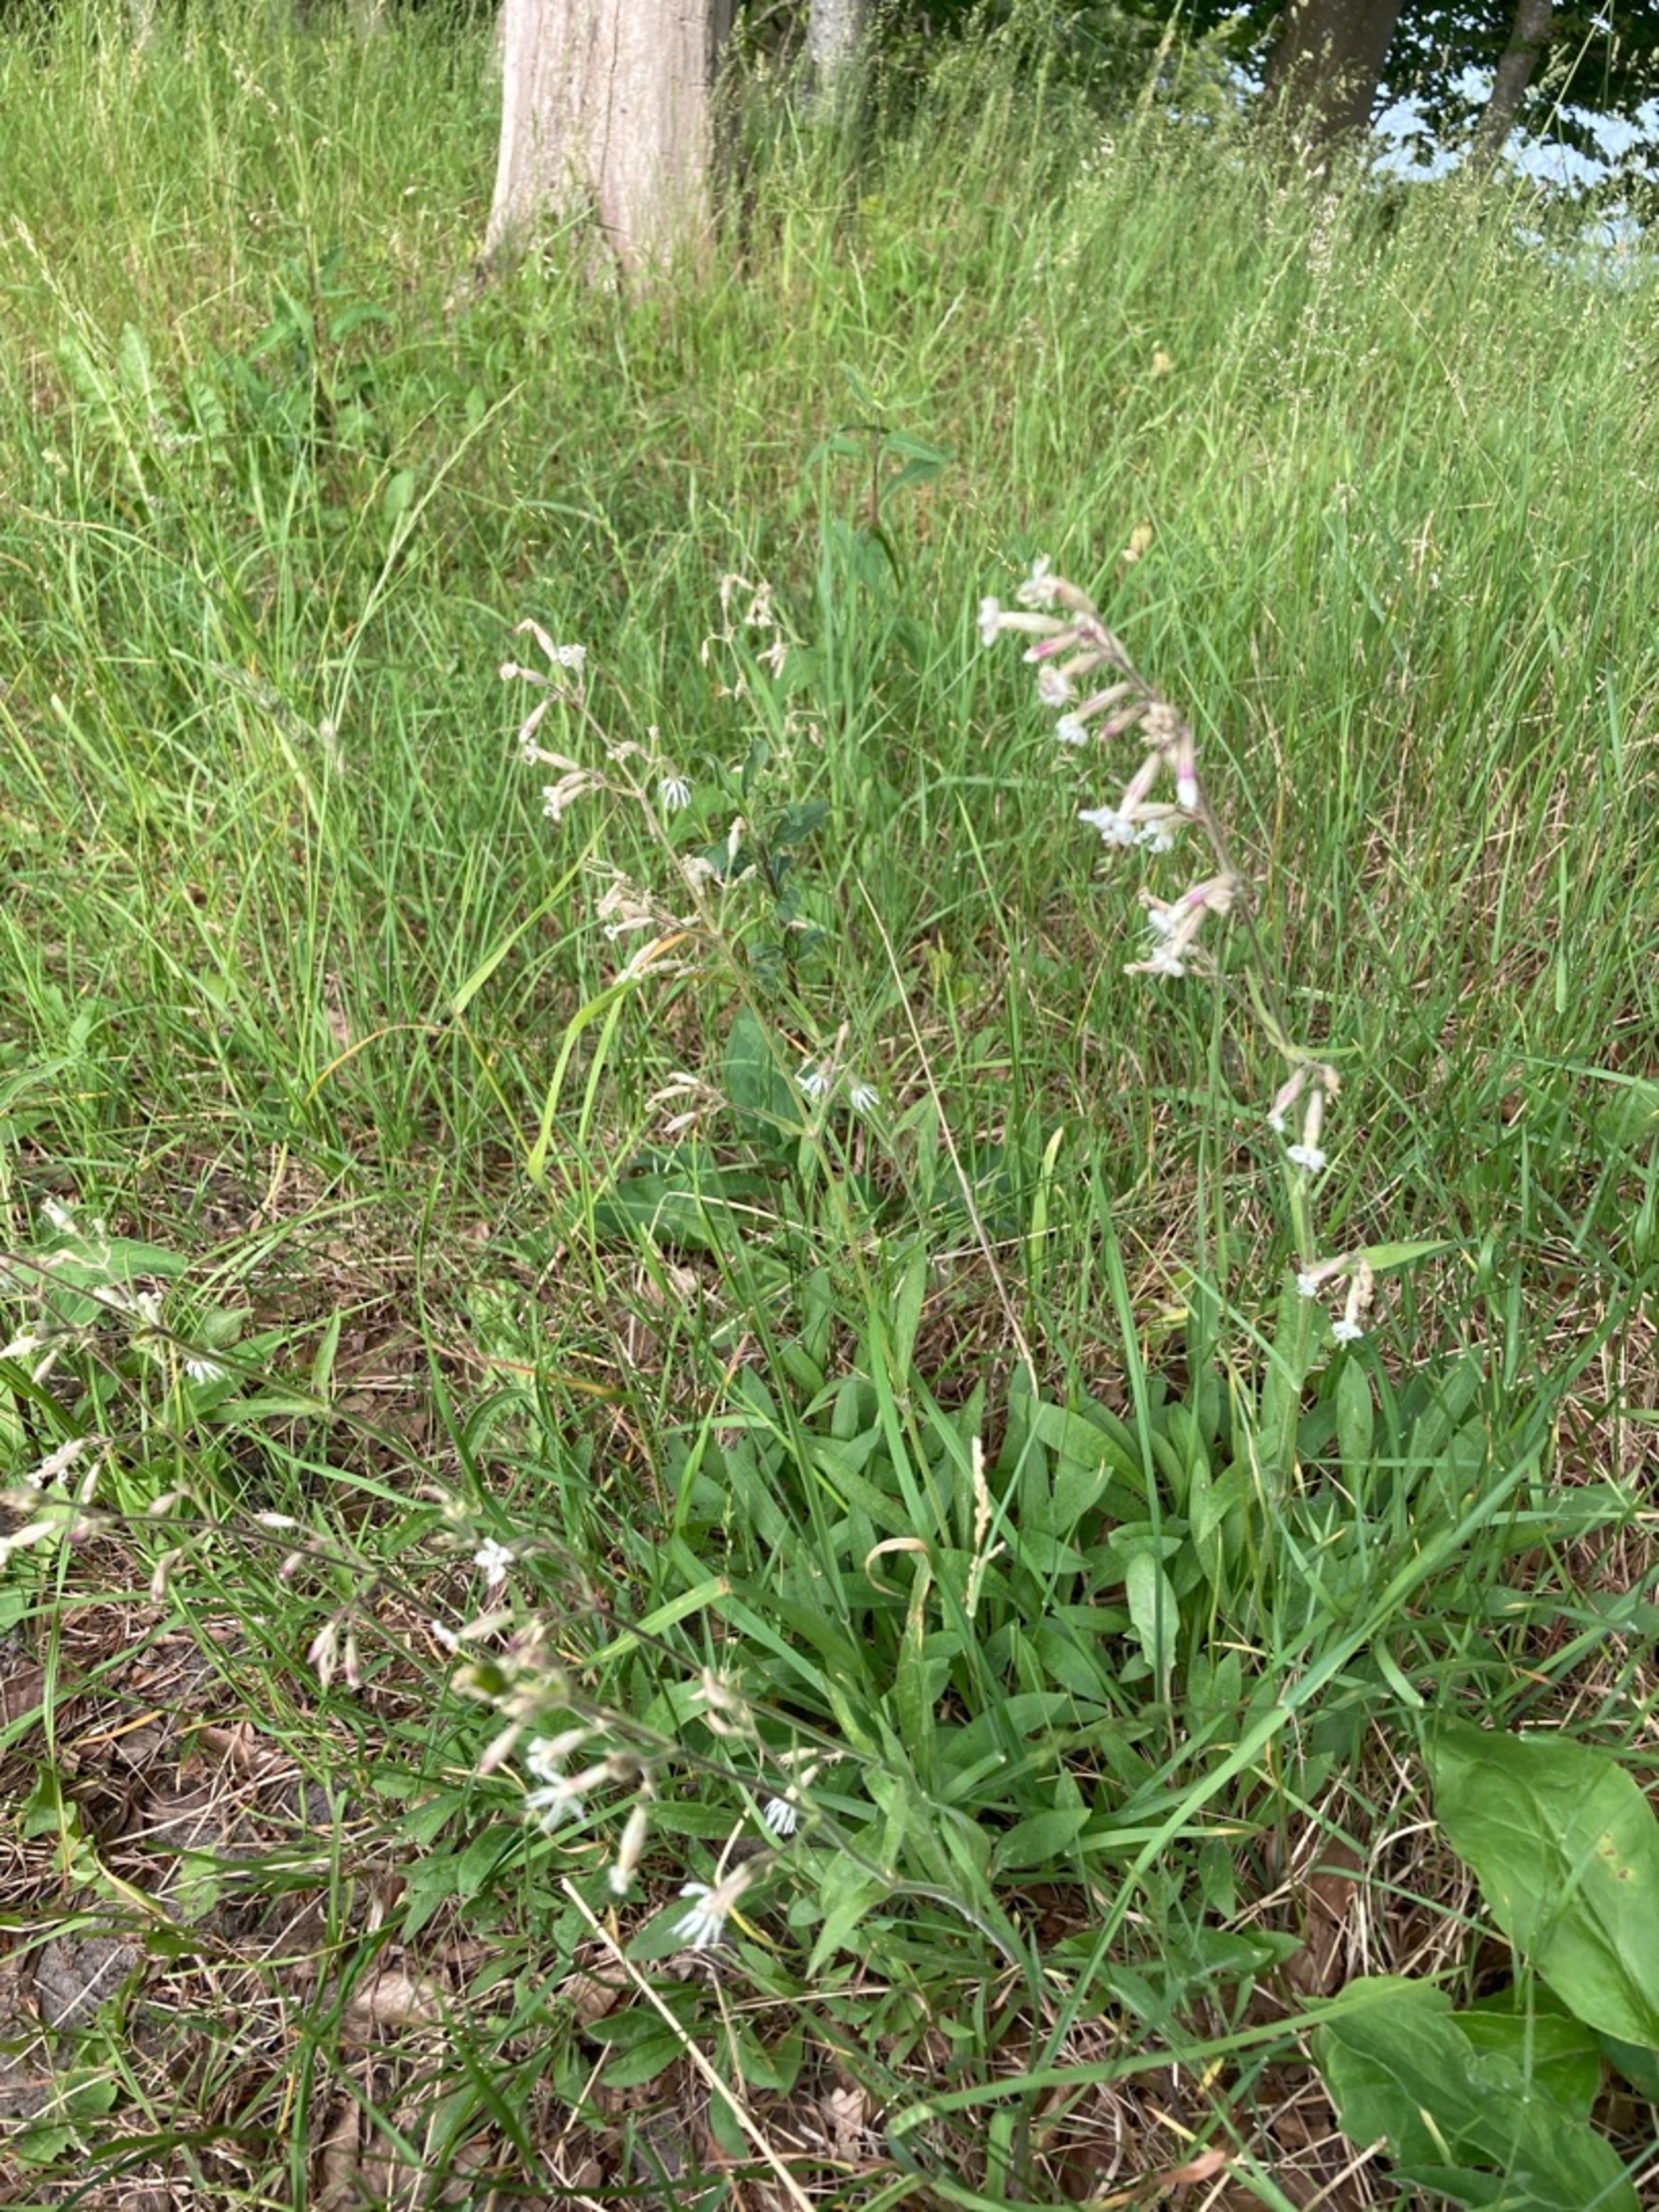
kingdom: Plantae
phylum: Tracheophyta
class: Magnoliopsida
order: Caryophyllales
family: Caryophyllaceae
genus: Silene
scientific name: Silene nutans
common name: Nikkende limurt
